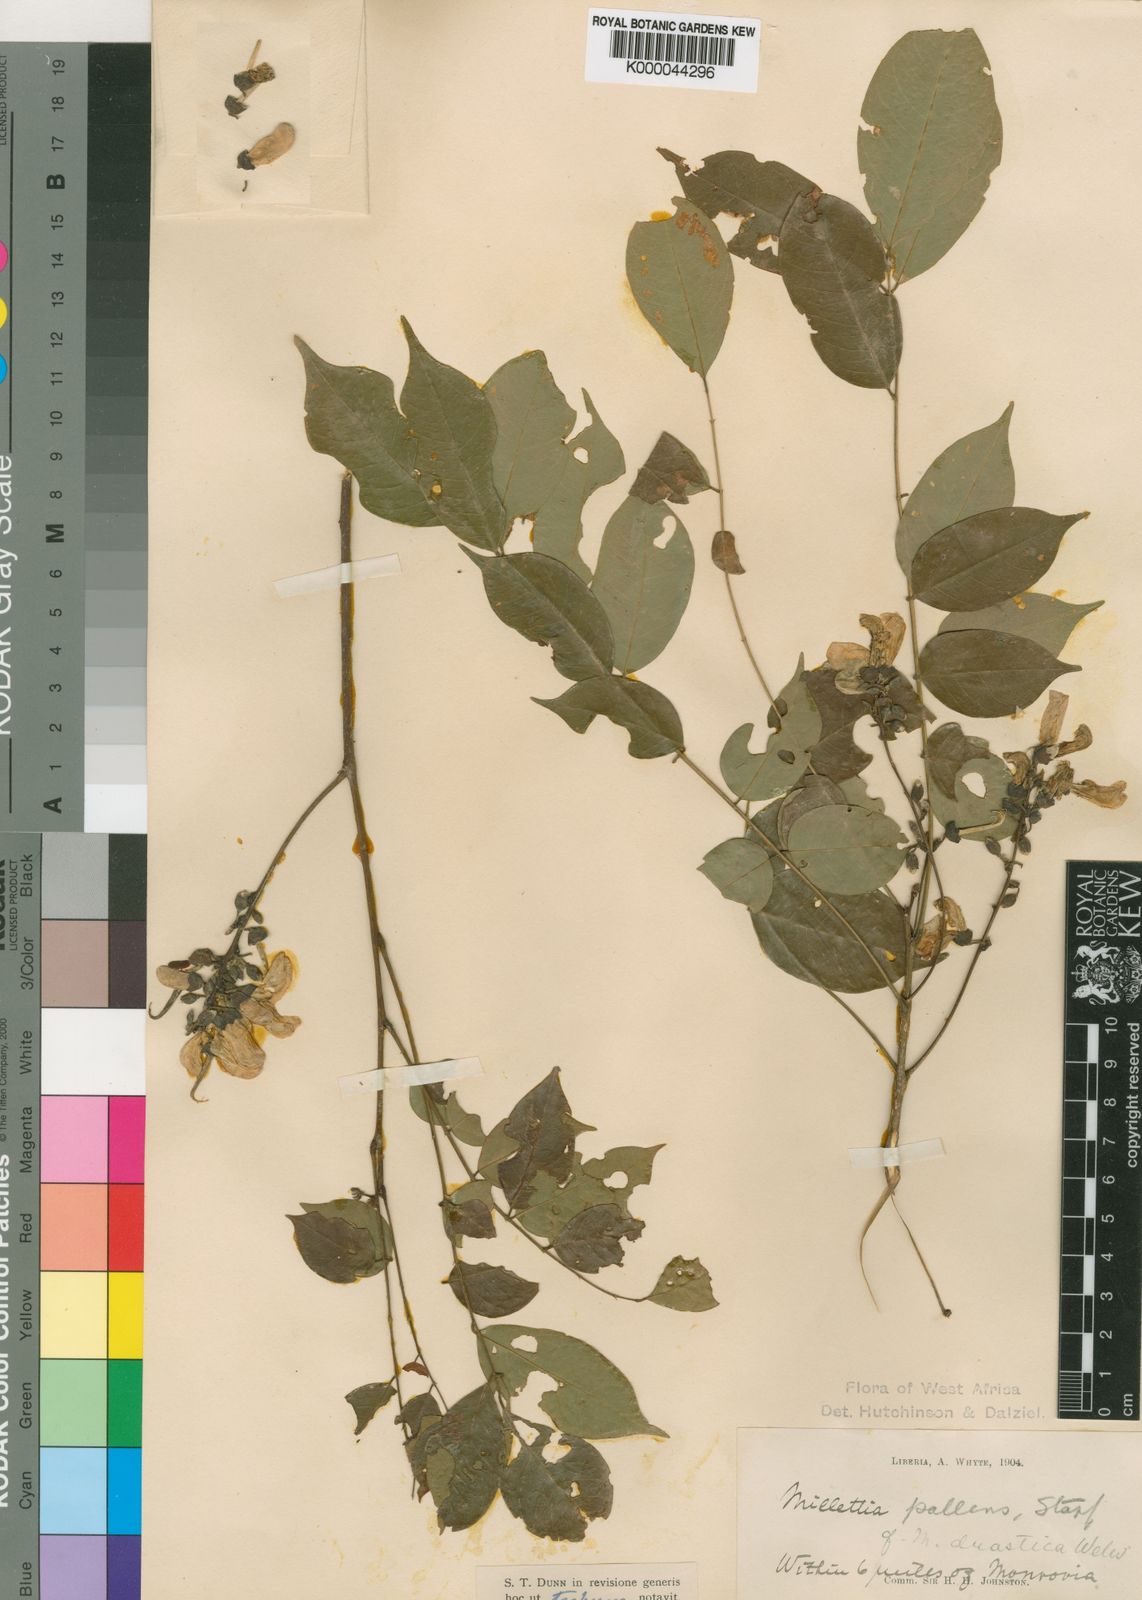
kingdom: Plantae
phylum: Tracheophyta
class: Magnoliopsida
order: Fabales
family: Fabaceae
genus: Millettia
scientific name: Millettia pallens
